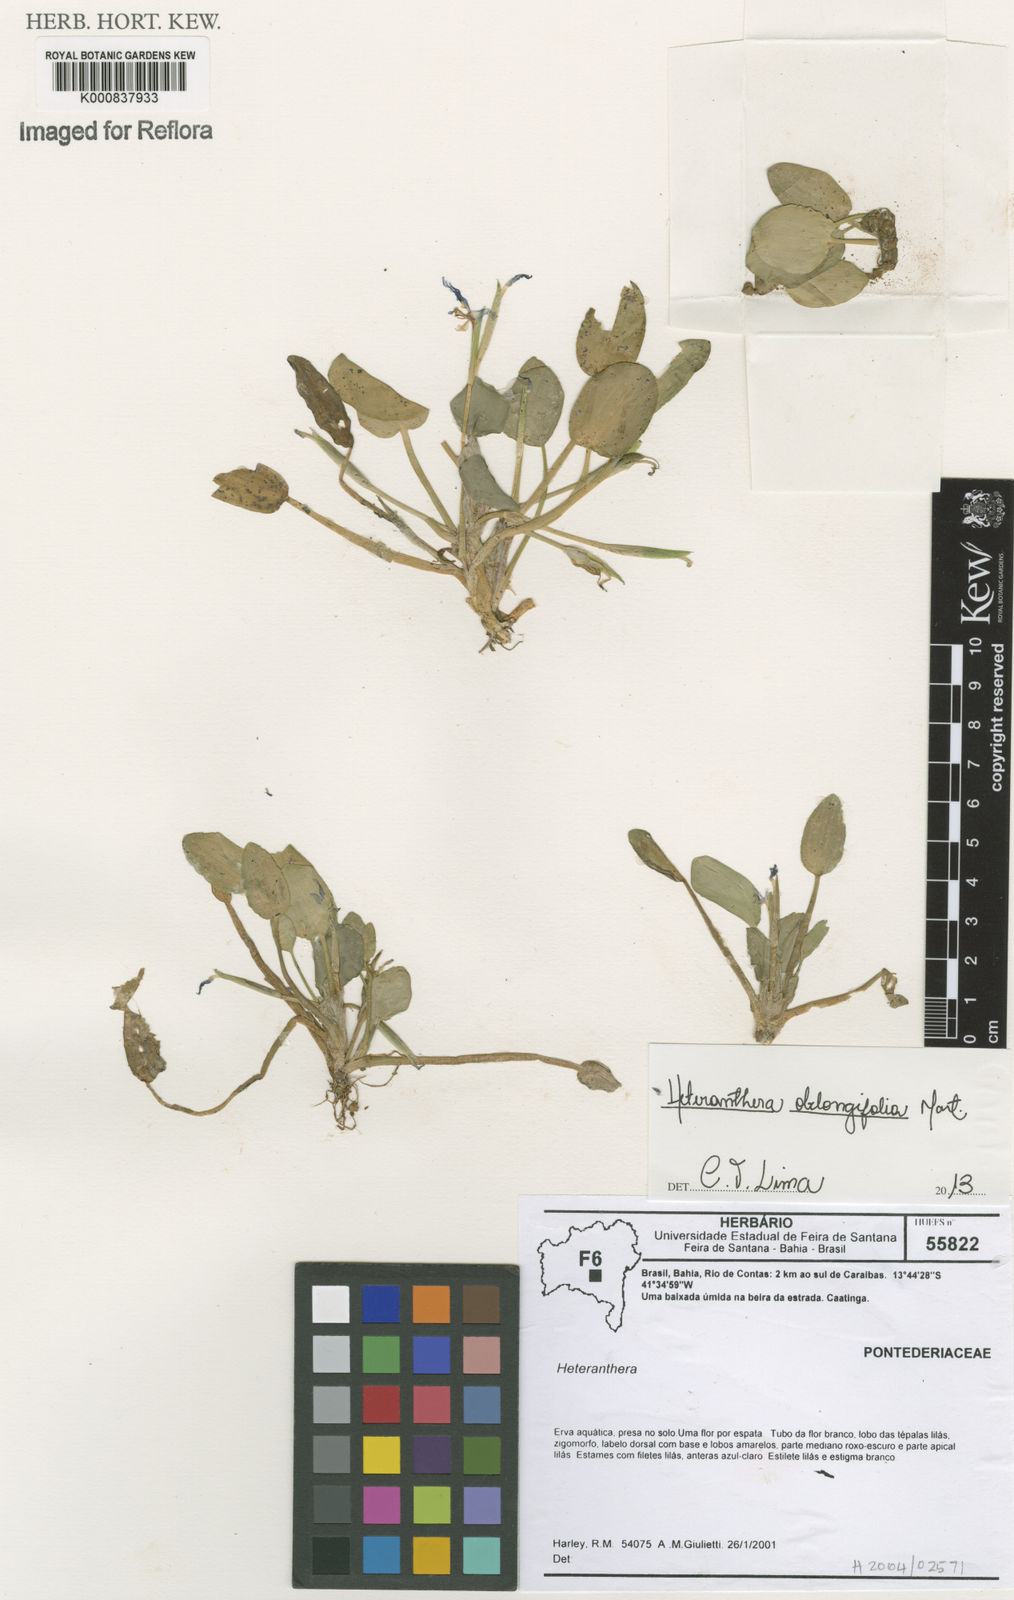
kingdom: Plantae
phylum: Tracheophyta
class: Liliopsida
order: Commelinales
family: Pontederiaceae
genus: Heteranthera
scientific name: Heteranthera rotundifolia
